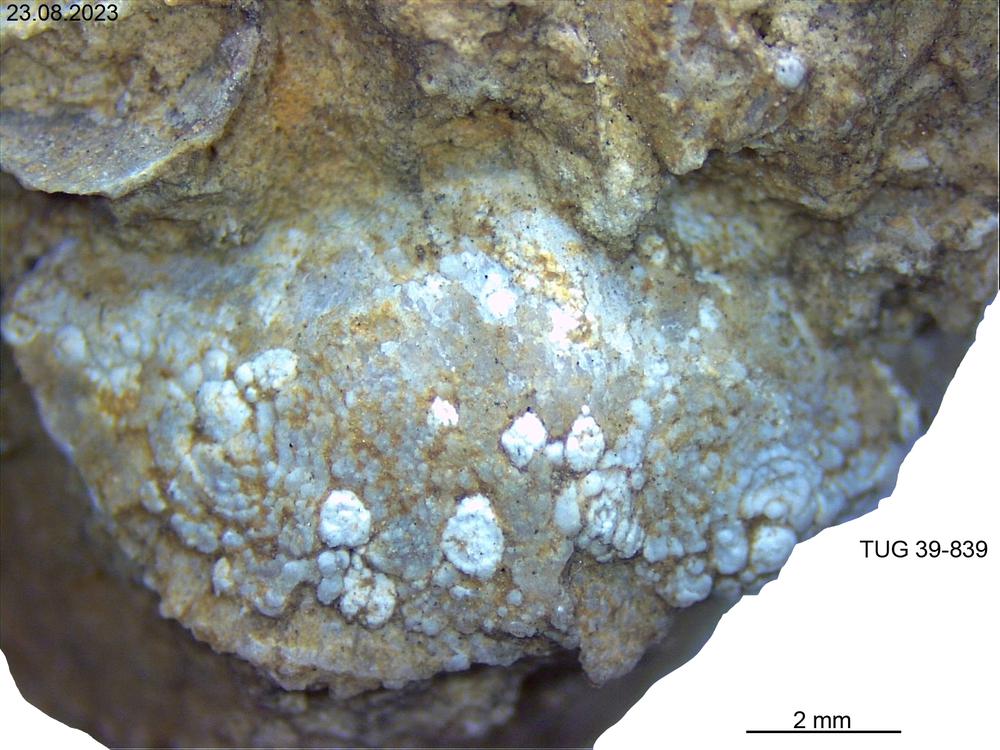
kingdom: Animalia
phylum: Brachiopoda
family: Oldhaminidae
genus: Eoplectodonta
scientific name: Eoplectodonta
